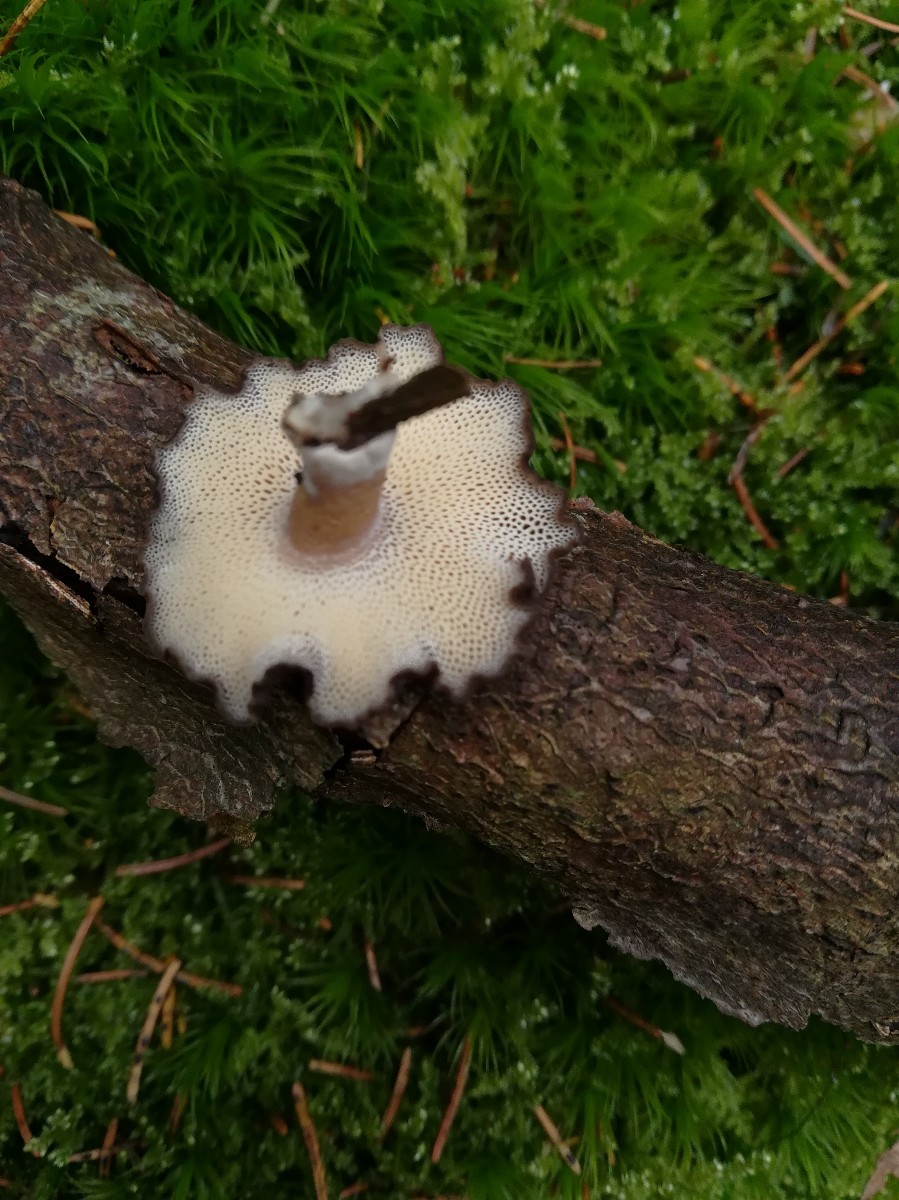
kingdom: Fungi
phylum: Basidiomycota
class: Agaricomycetes
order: Polyporales
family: Polyporaceae
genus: Lentinus
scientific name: Lentinus brumalis
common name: vinter-stilkporesvamp
